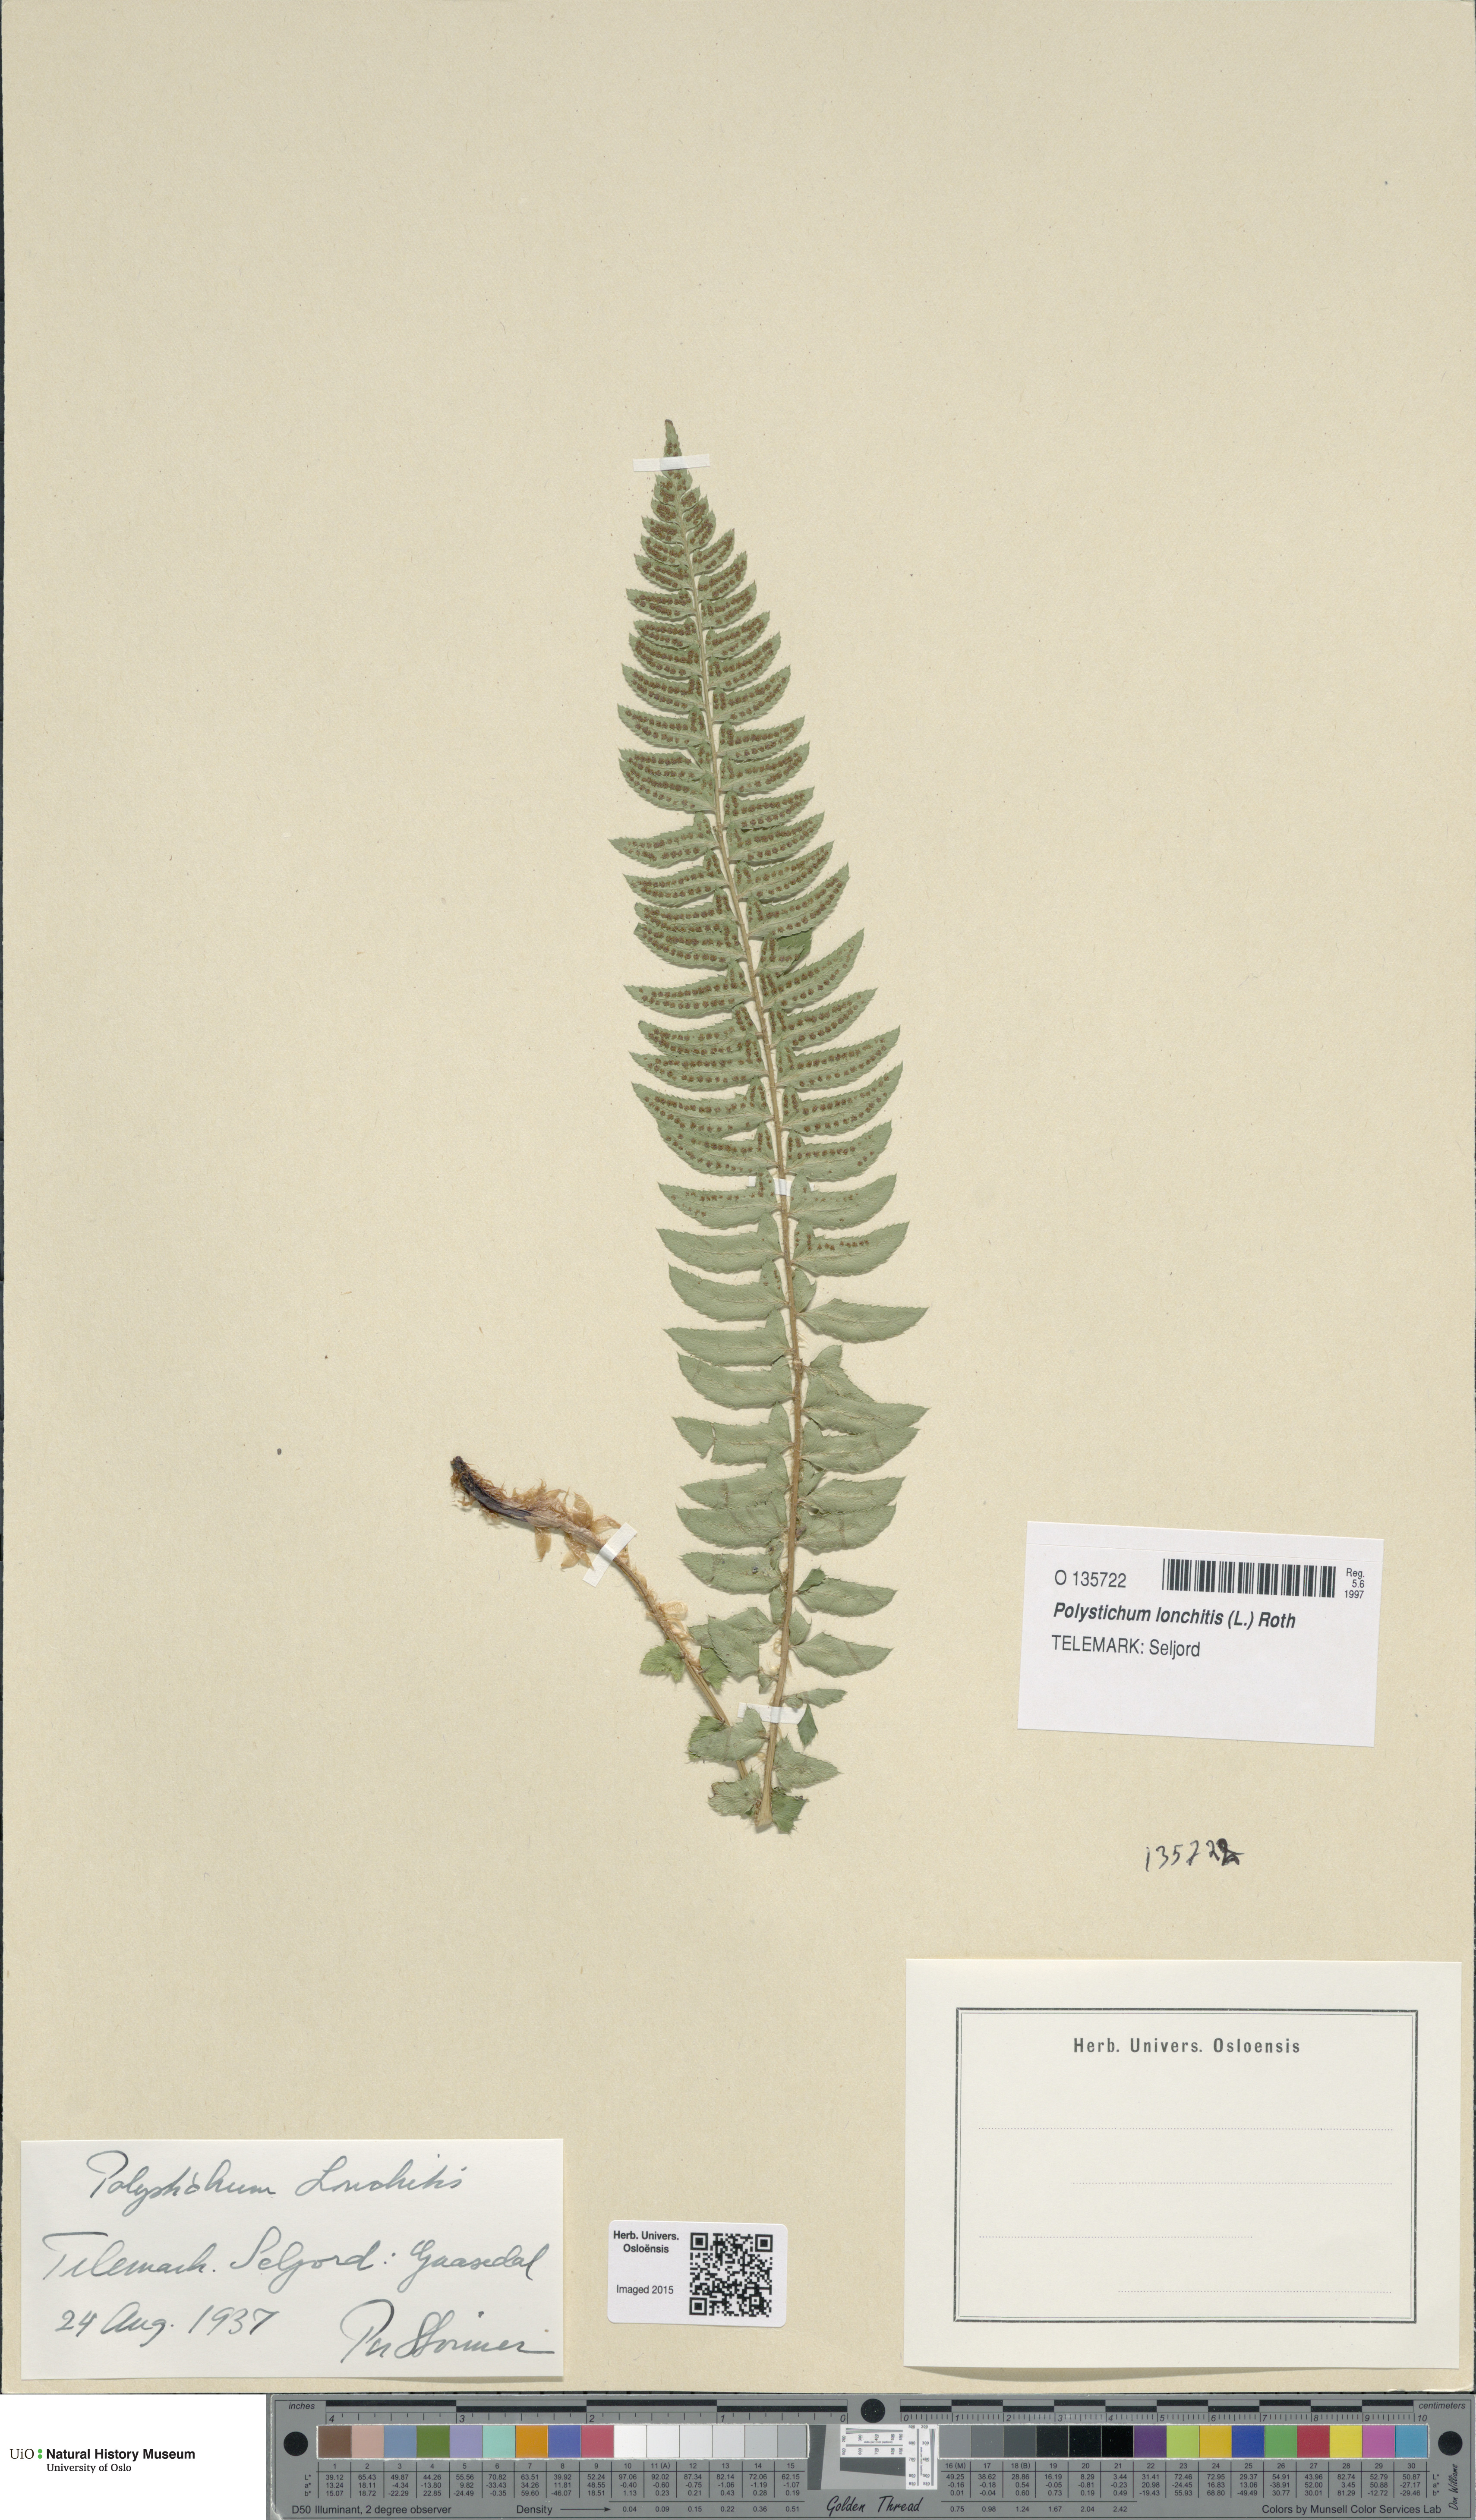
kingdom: Plantae
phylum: Tracheophyta
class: Polypodiopsida
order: Polypodiales
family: Dryopteridaceae
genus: Polystichum
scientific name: Polystichum lonchitis
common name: Holly fern
